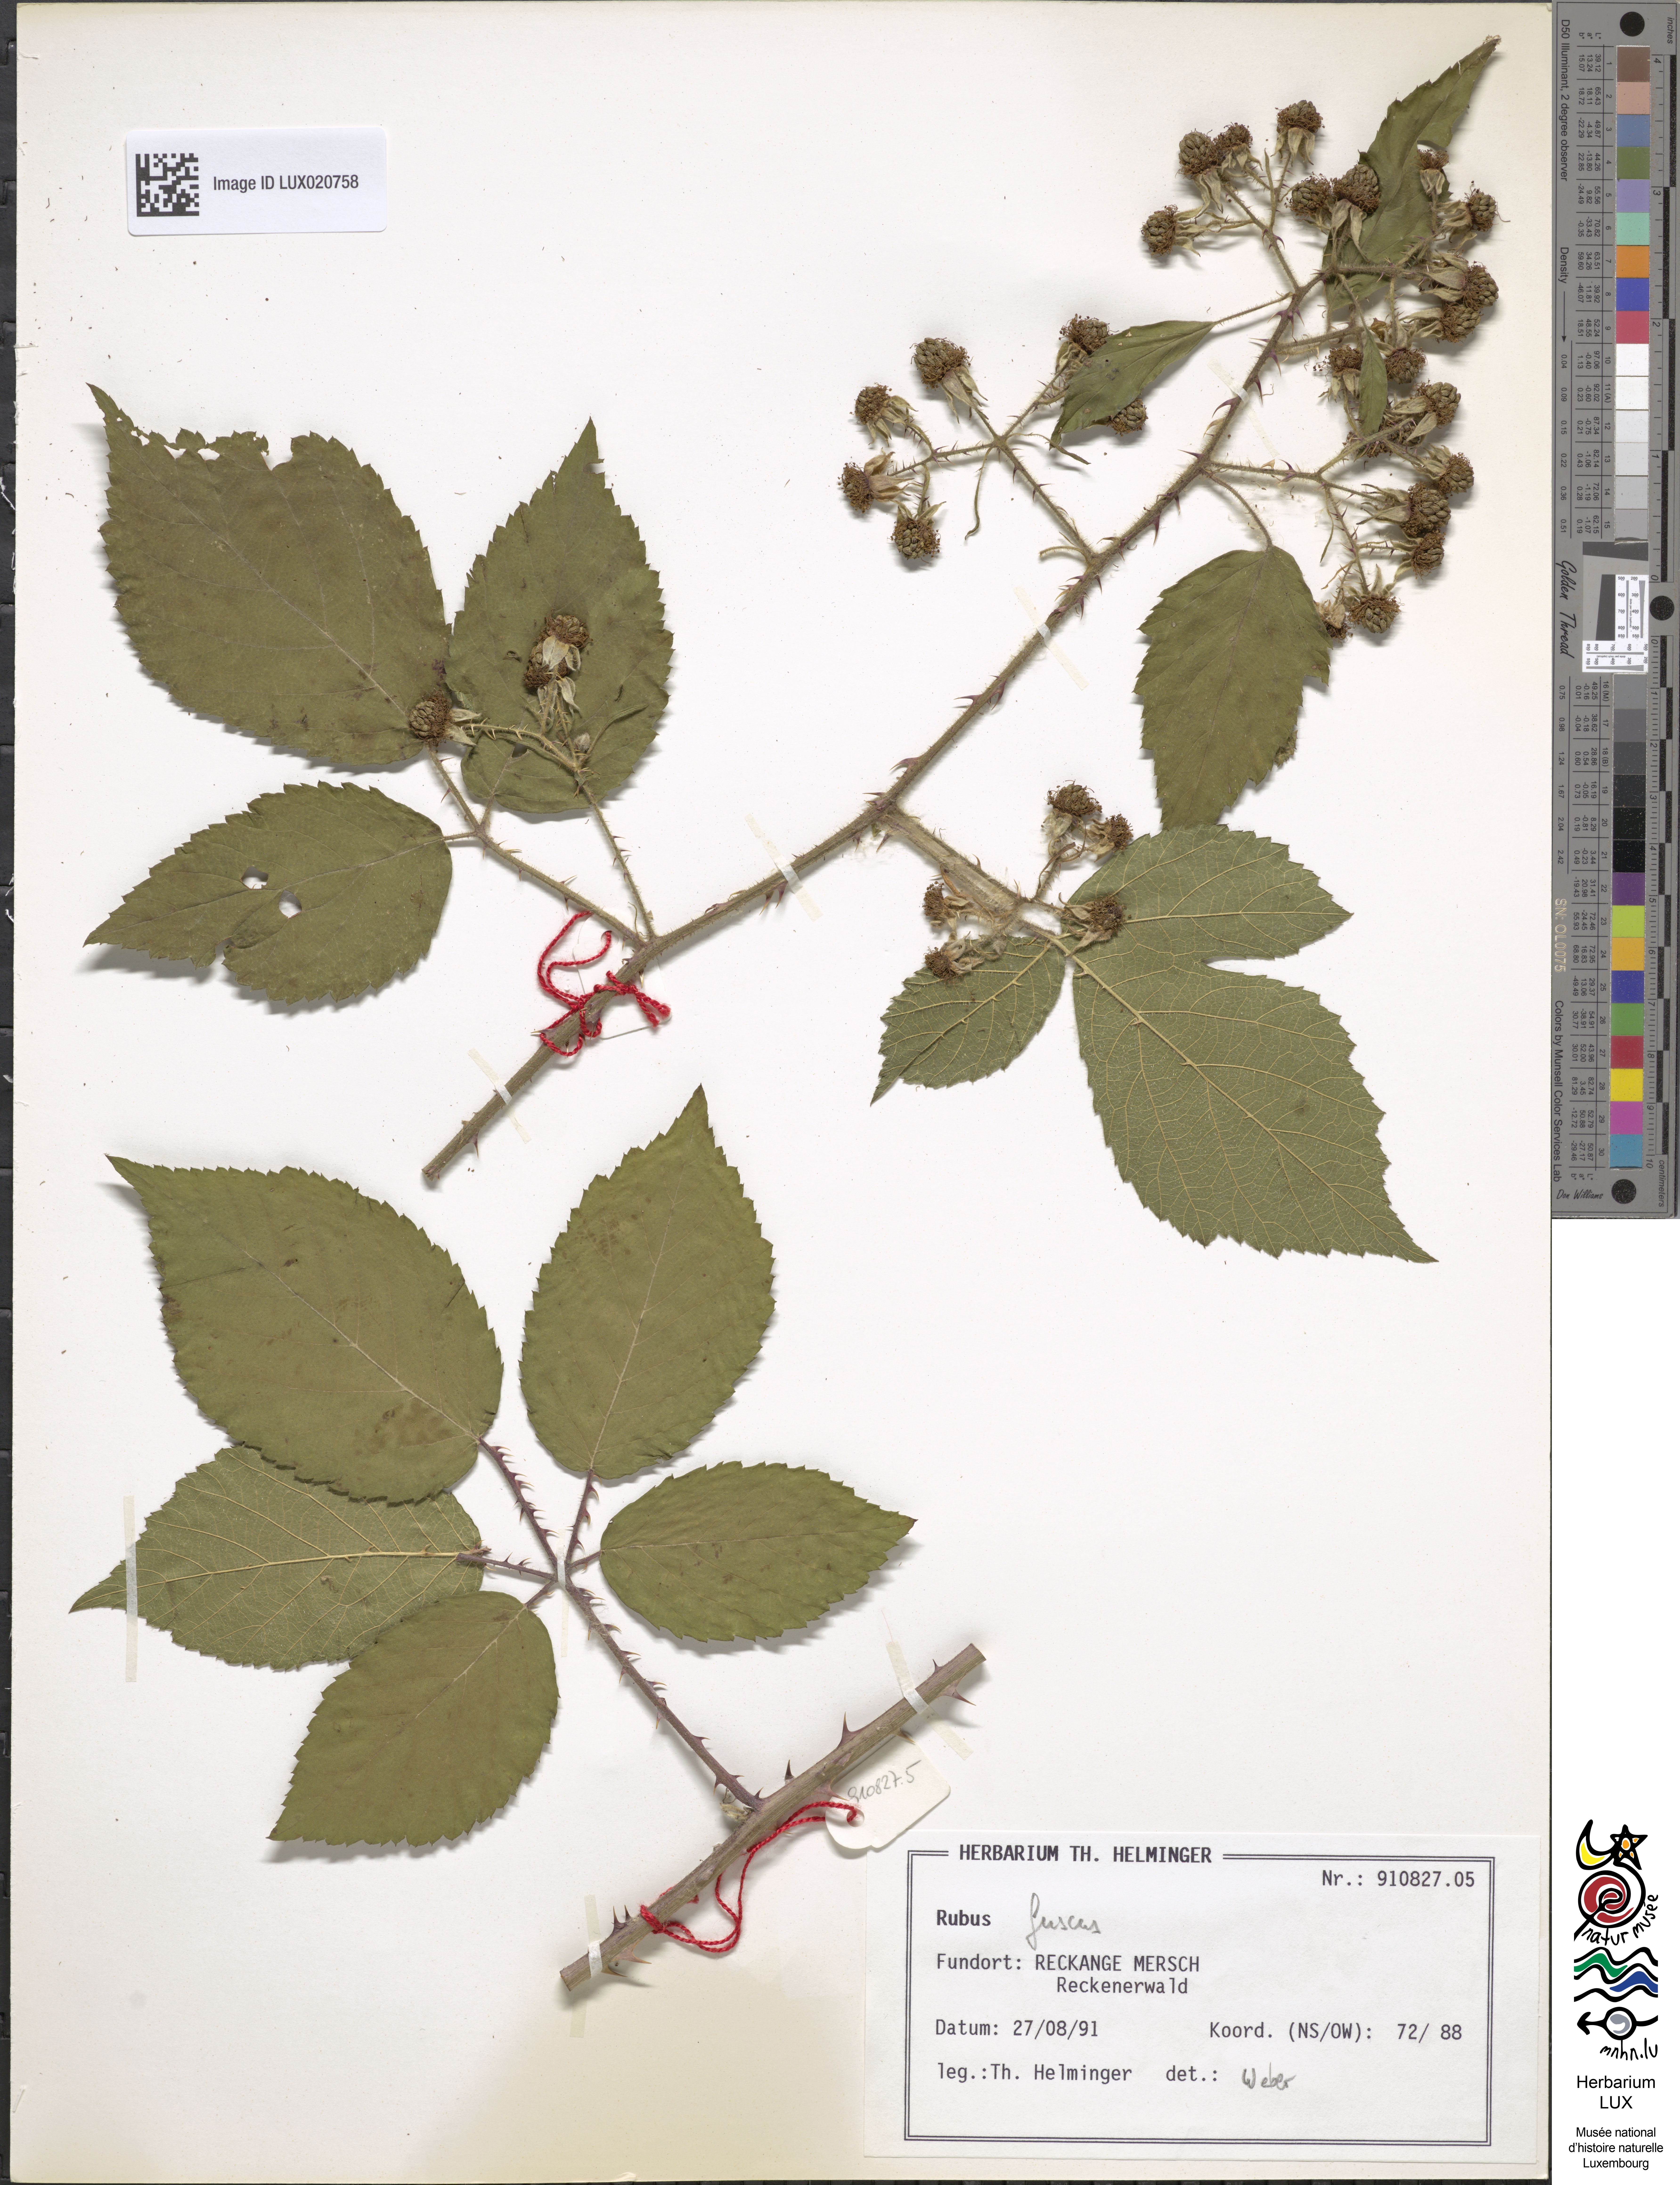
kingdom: Plantae
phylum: Tracheophyta
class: Magnoliopsida
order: Rosales
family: Rosaceae
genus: Rubus
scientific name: Rubus fuscus
